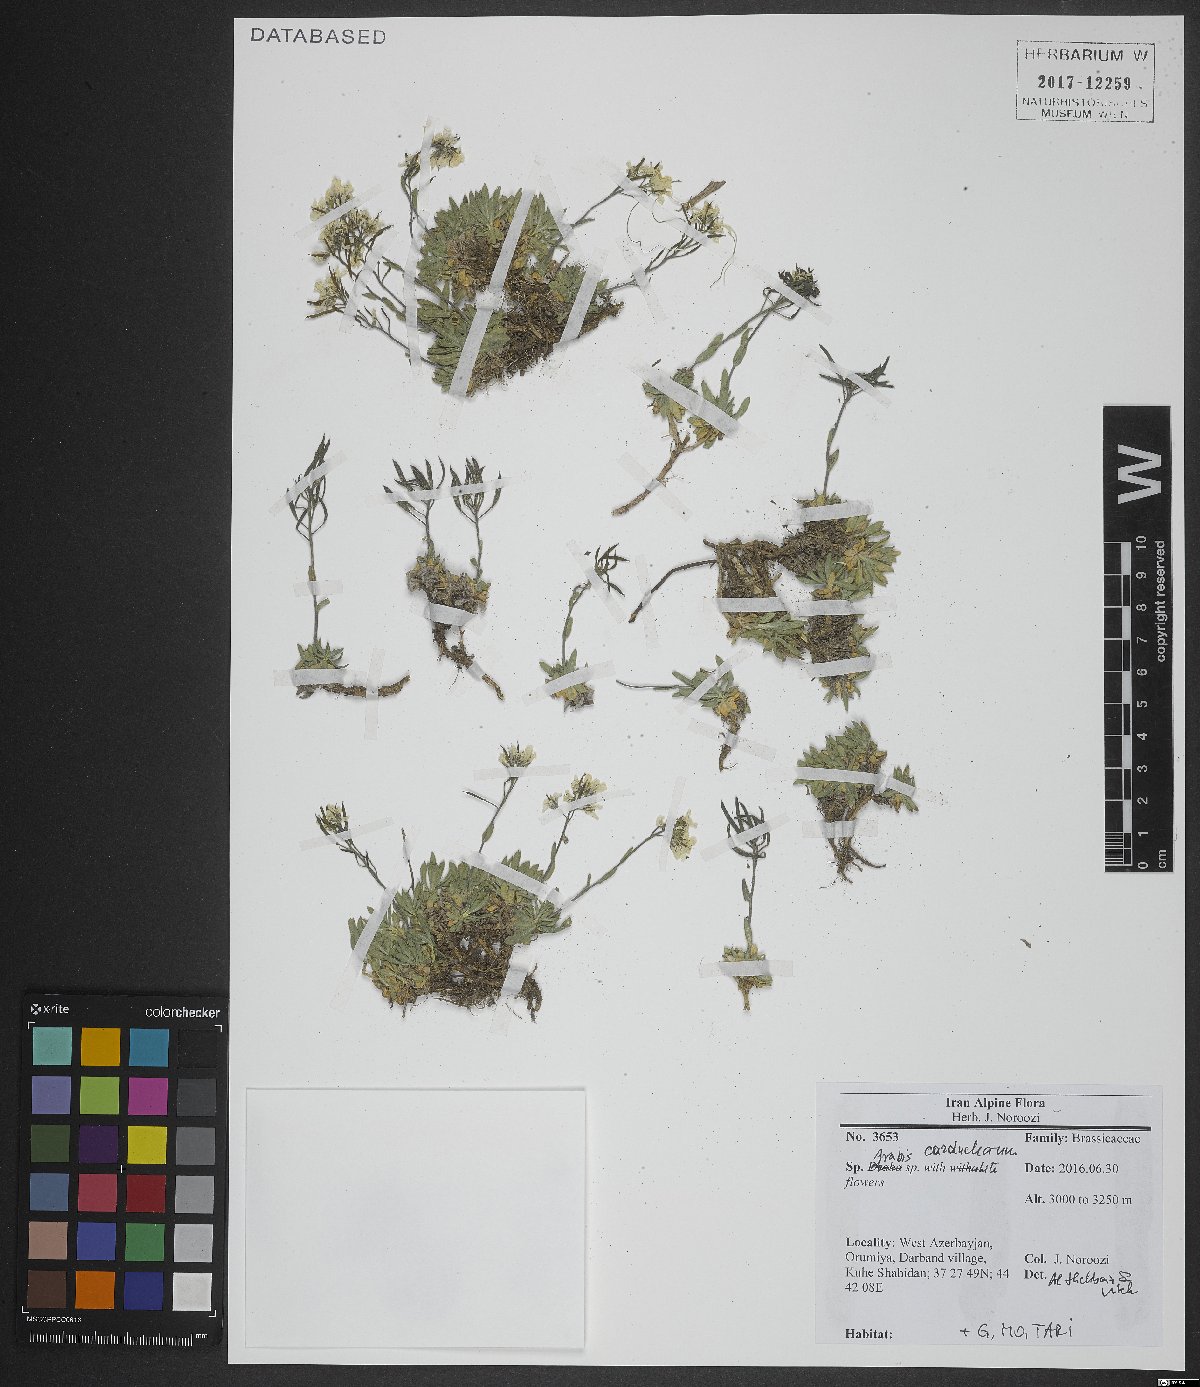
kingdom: Plantae
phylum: Tracheophyta
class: Magnoliopsida
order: Brassicales
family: Brassicaceae
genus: Arabis
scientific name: Arabis carduchorum
